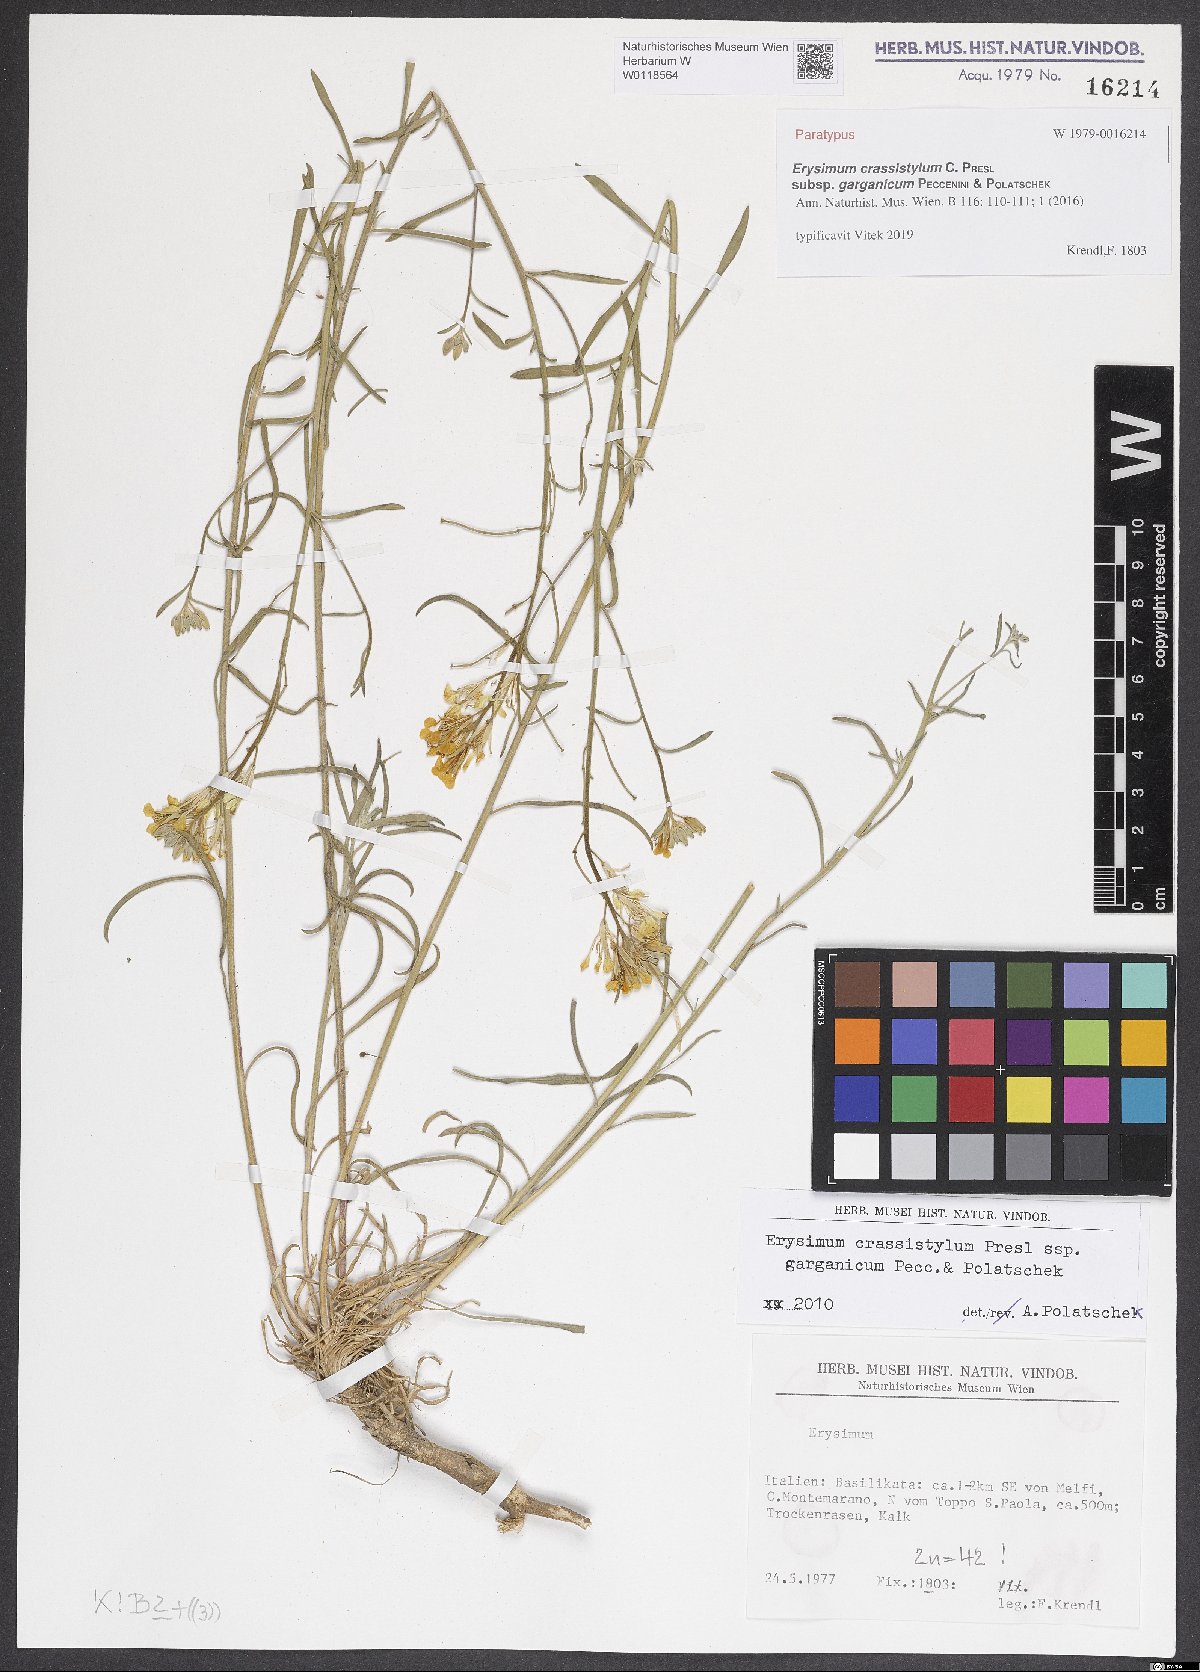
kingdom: Plantae
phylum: Tracheophyta
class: Magnoliopsida
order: Brassicales
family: Brassicaceae
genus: Erysimum
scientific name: Erysimum crassistylum
